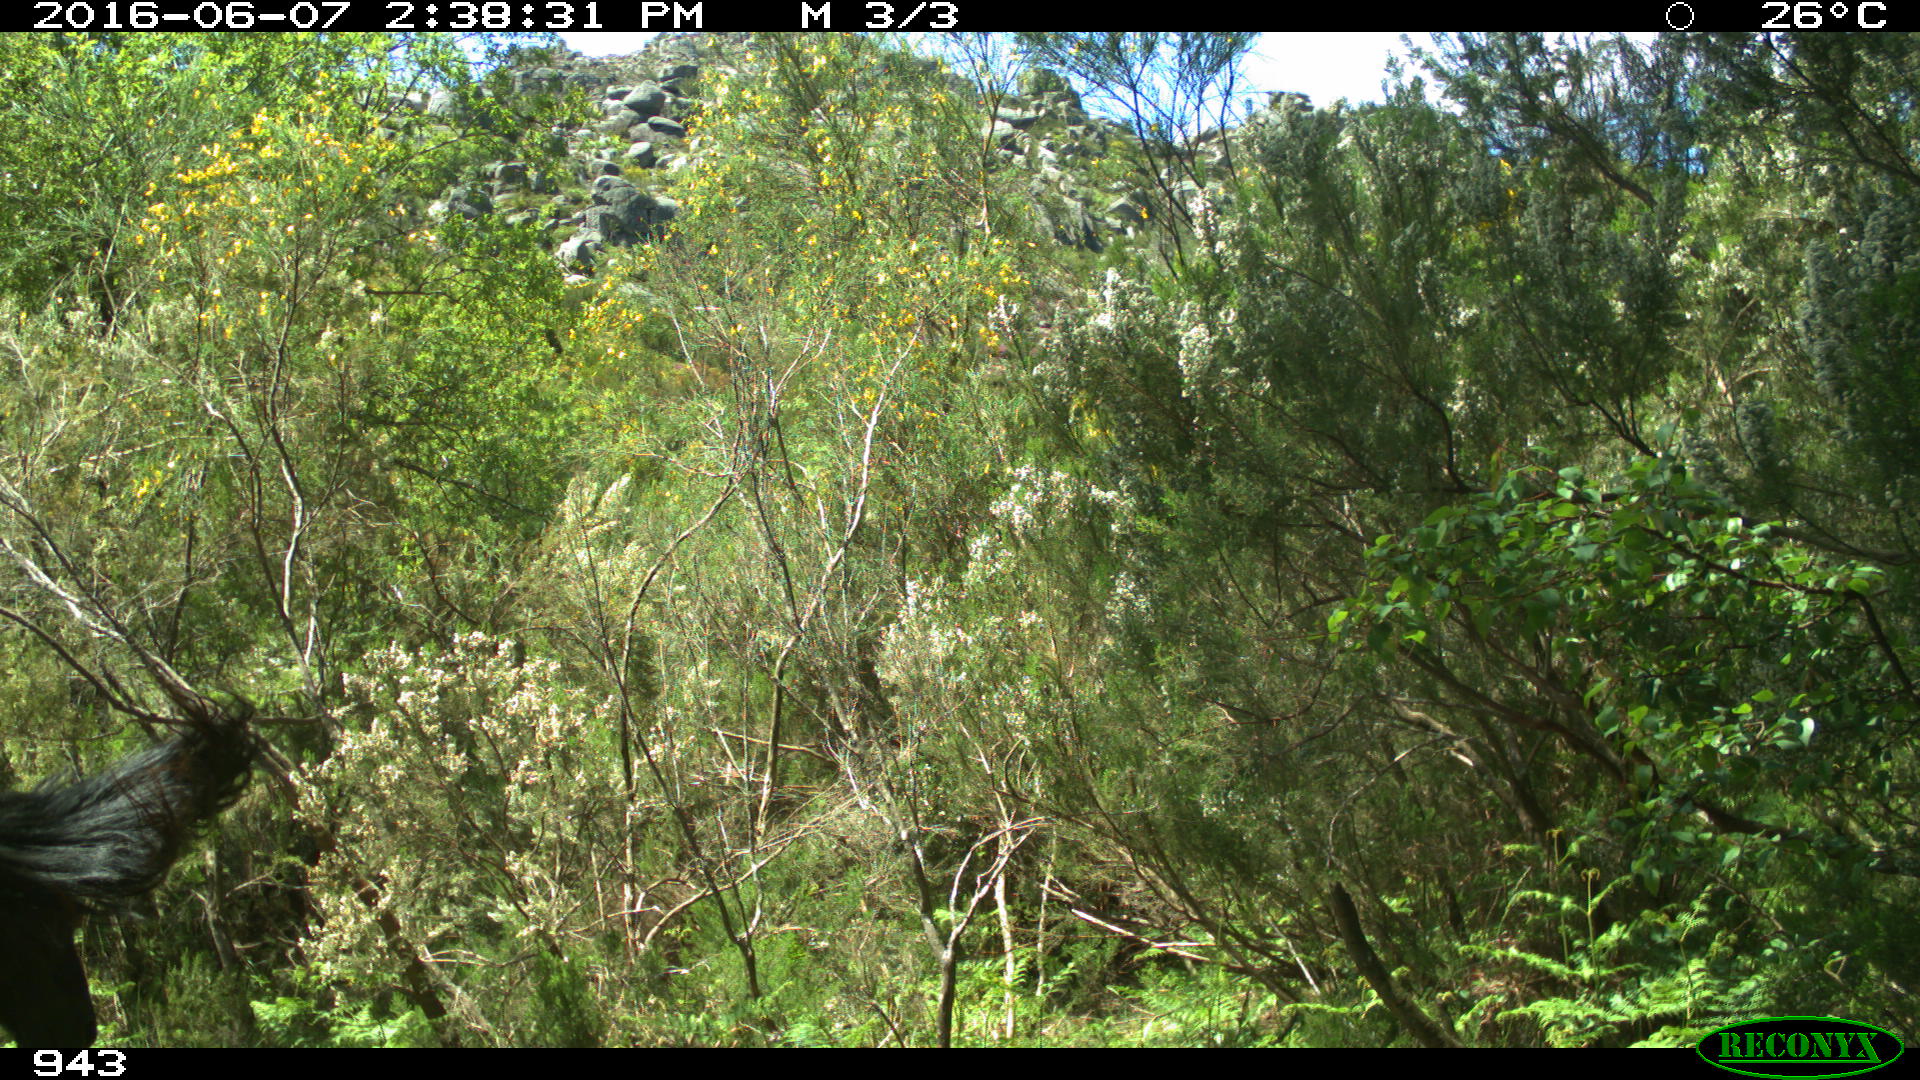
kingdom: Animalia
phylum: Chordata
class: Mammalia
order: Perissodactyla
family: Equidae
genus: Equus
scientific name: Equus caballus
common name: Horse
